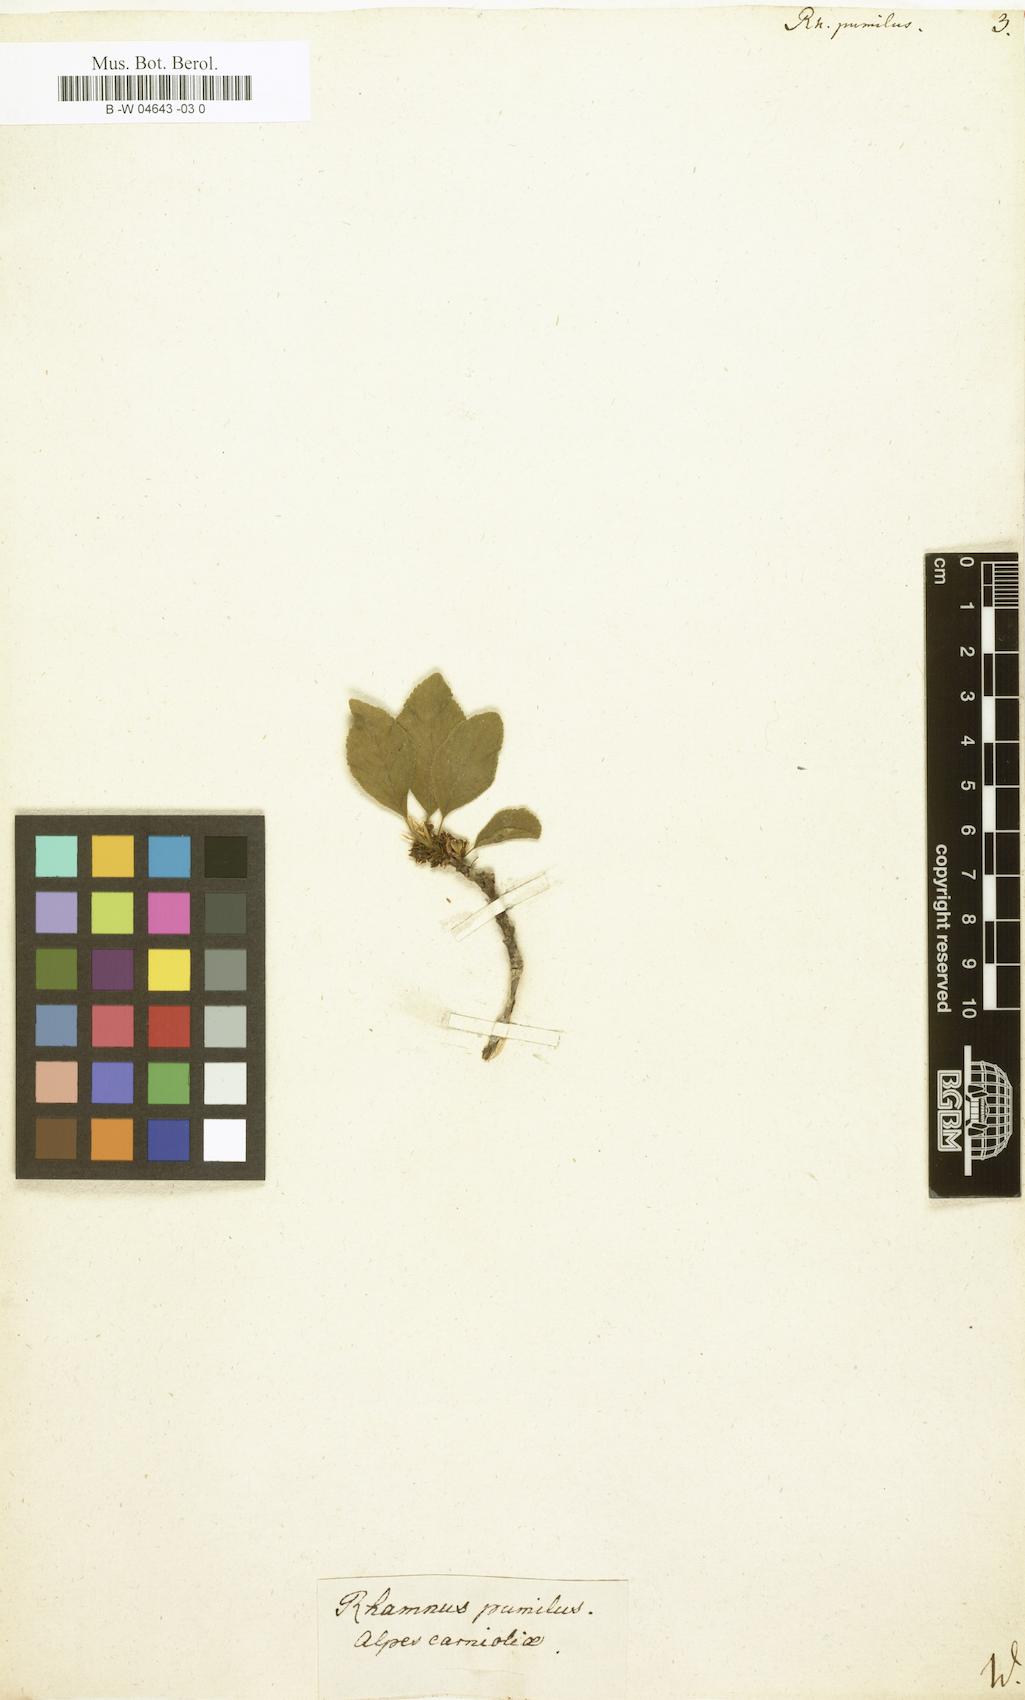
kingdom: Plantae
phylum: Tracheophyta
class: Magnoliopsida
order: Rosales
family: Rhamnaceae
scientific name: Rhamnaceae
